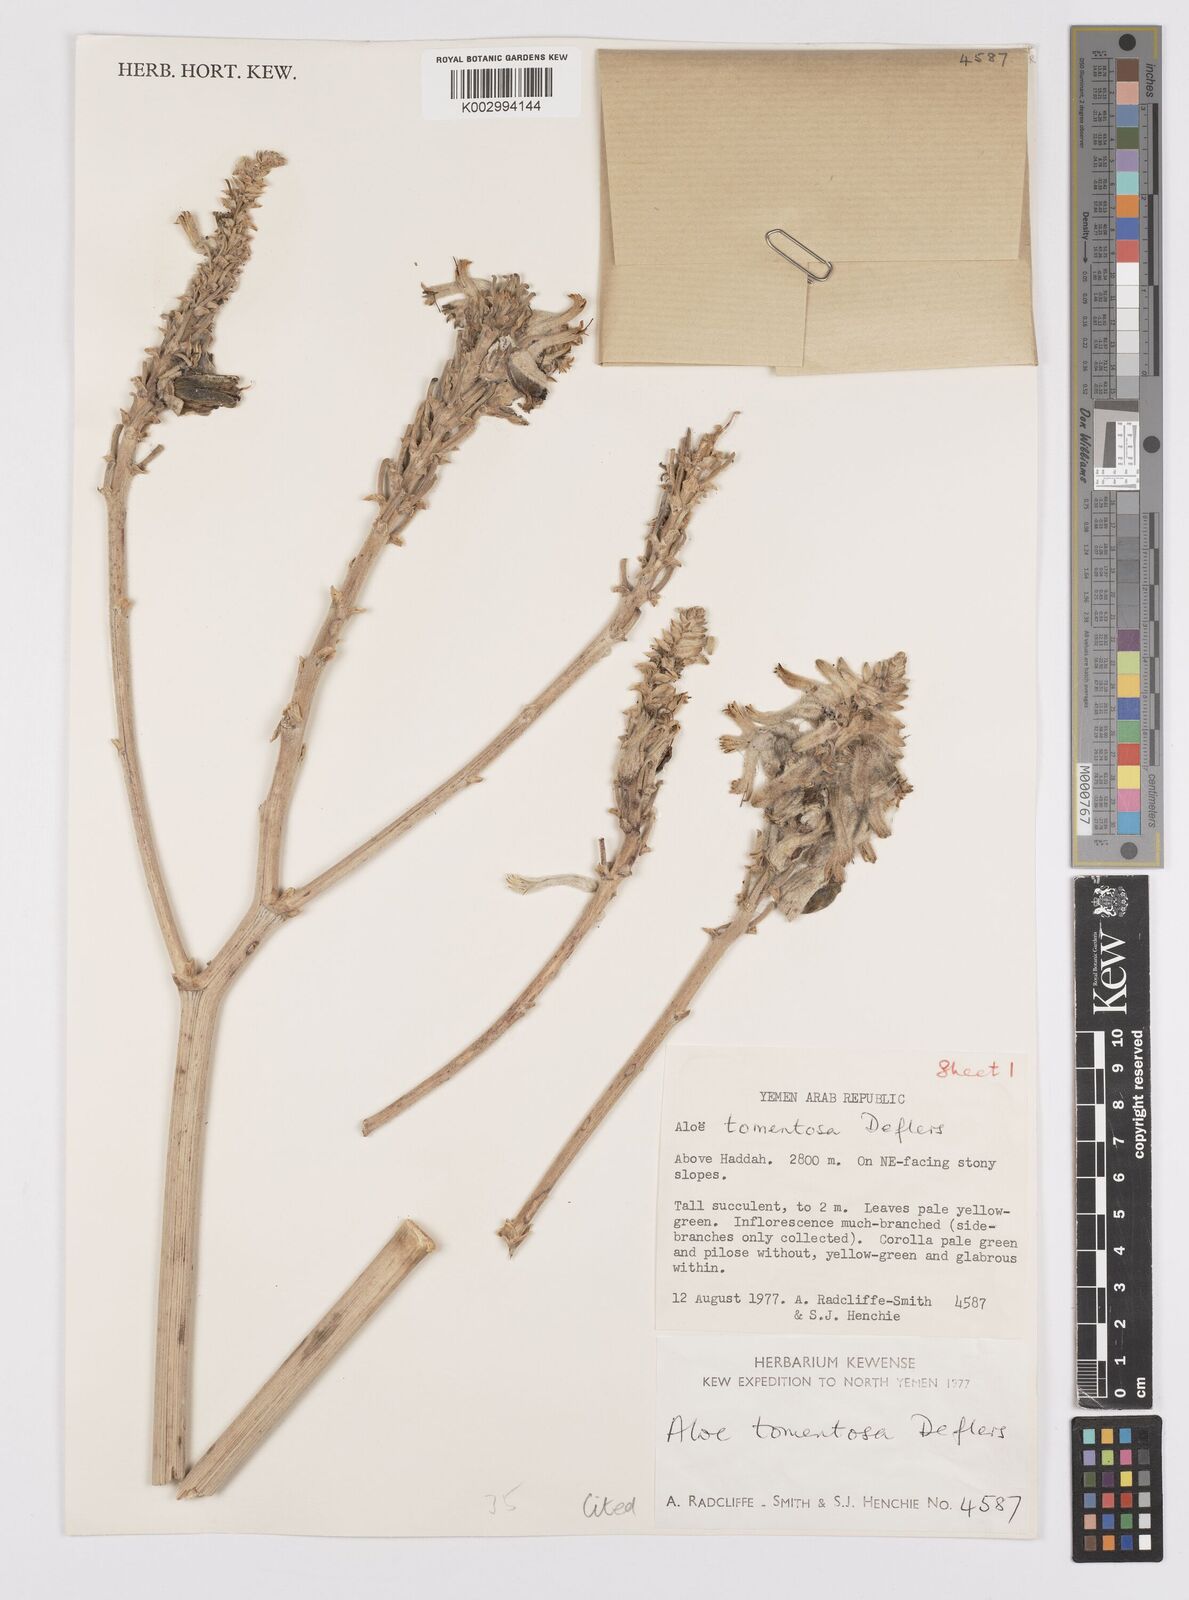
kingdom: Plantae
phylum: Tracheophyta
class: Liliopsida
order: Asparagales
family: Asphodelaceae
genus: Aloe
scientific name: Aloe tomentosa
